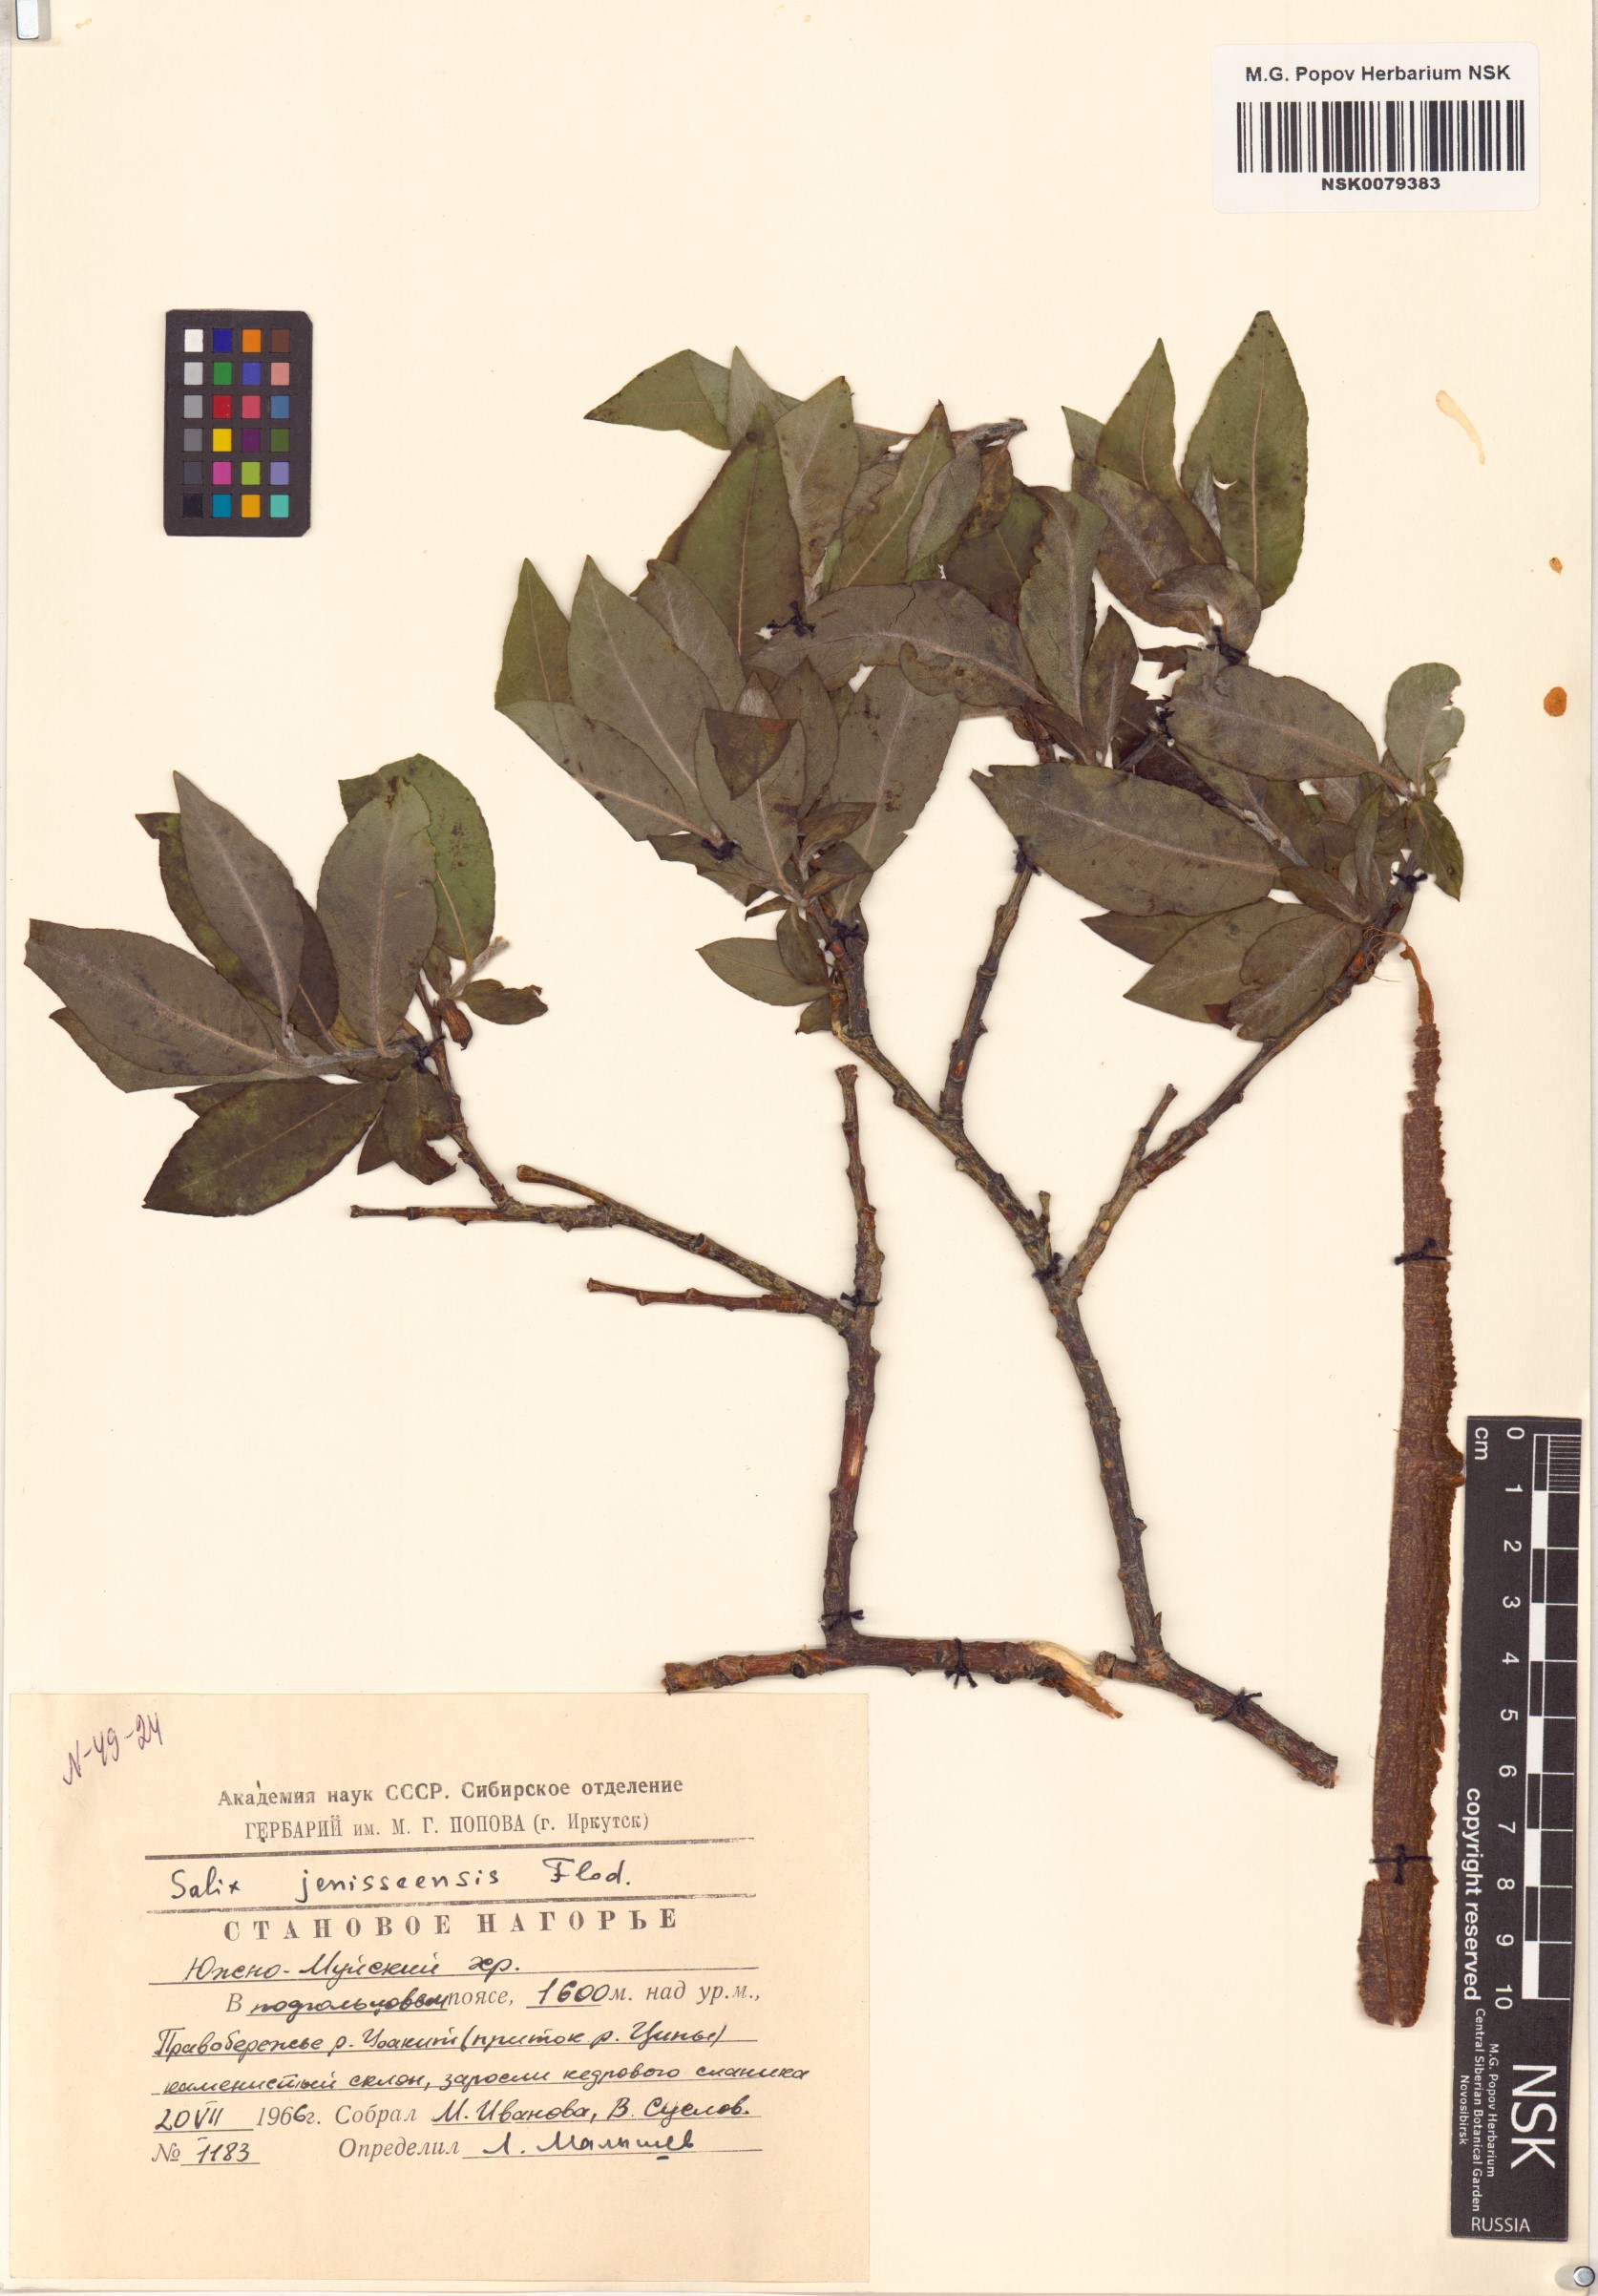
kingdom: Plantae
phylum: Tracheophyta
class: Magnoliopsida
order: Malpighiales
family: Salicaceae
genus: Salix
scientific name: Salix jenisseensis
